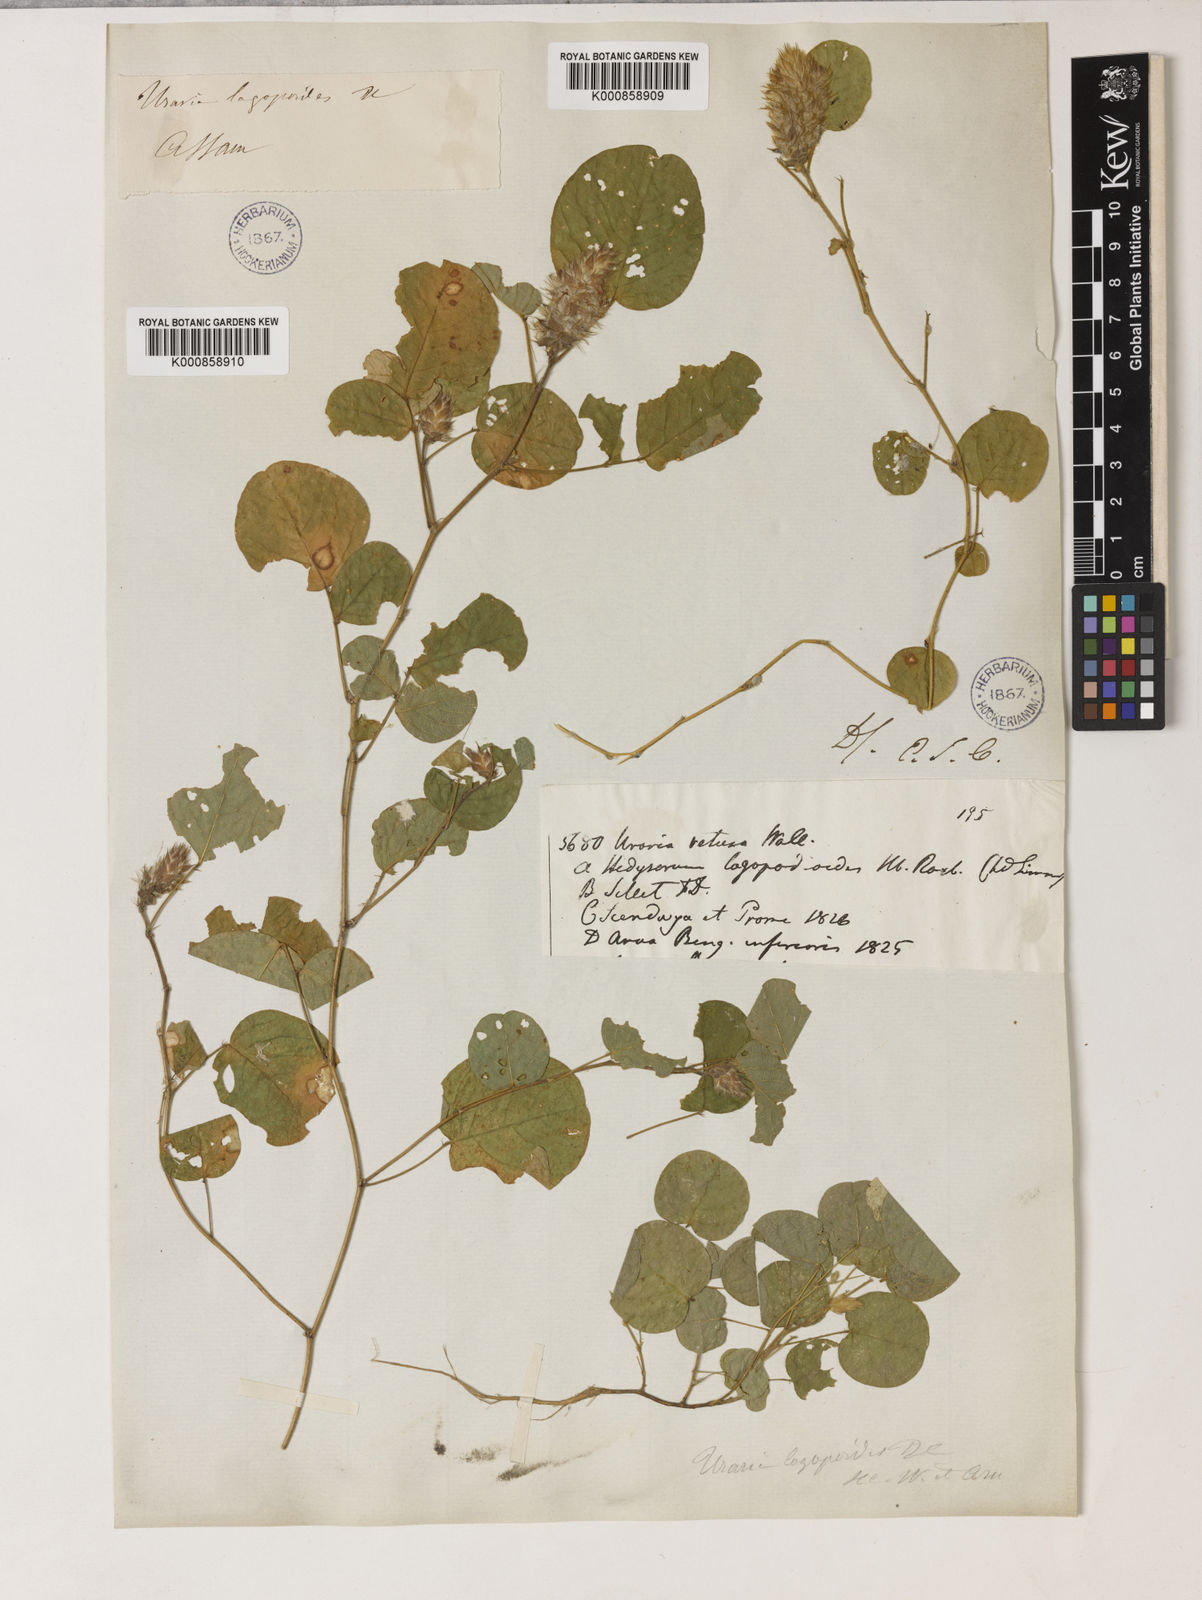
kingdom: Plantae
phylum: Tracheophyta
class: Magnoliopsida
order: Fabales
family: Fabaceae
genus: Uraria
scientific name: Uraria
